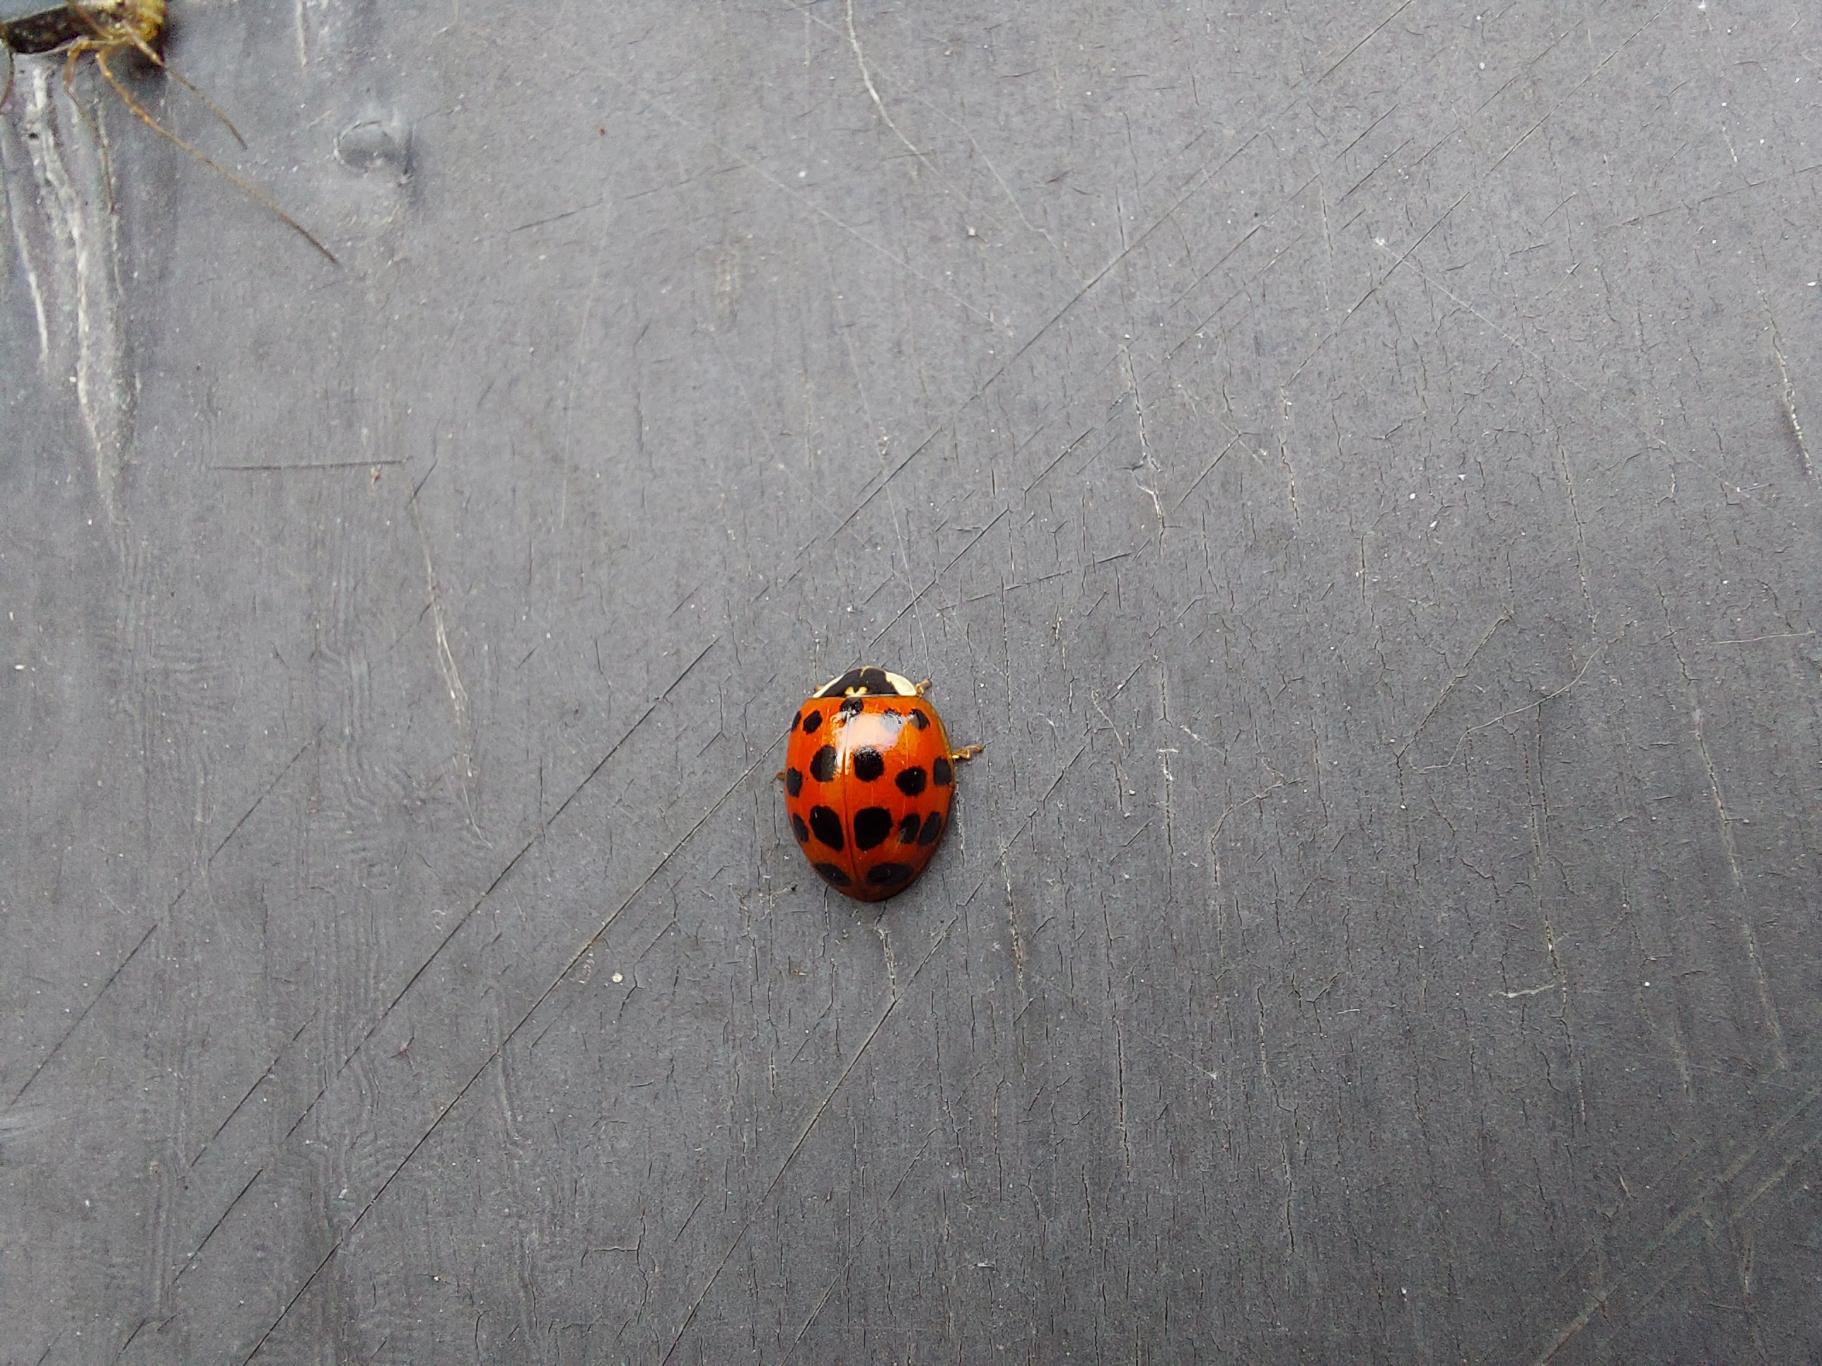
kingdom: Animalia
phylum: Arthropoda
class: Insecta
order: Coleoptera
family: Coccinellidae
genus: Harmonia
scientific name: Harmonia axyridis
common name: Harlekinmariehøne
